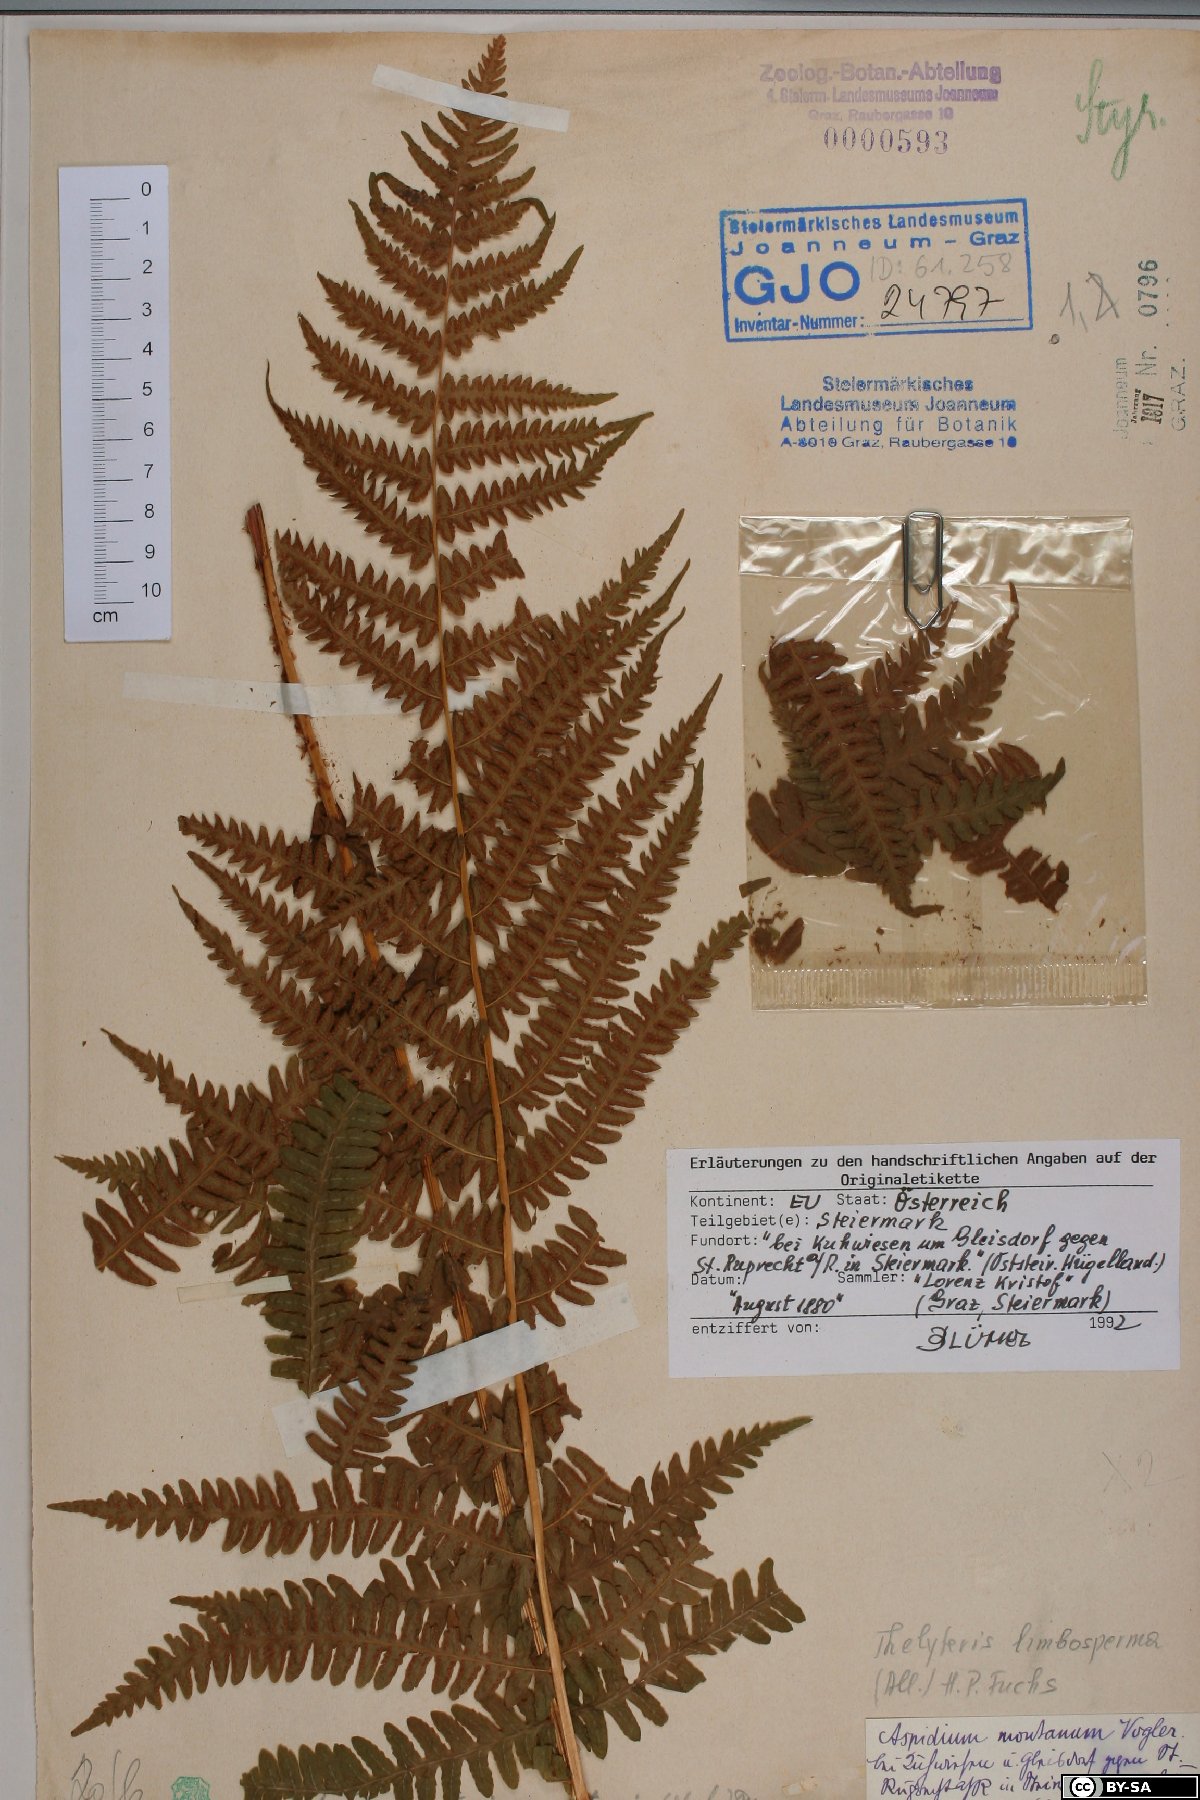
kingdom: Plantae
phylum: Tracheophyta
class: Polypodiopsida
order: Polypodiales
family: Thelypteridaceae
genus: Oreopteris
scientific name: Oreopteris limbosperma
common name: Lemon-scented fern
